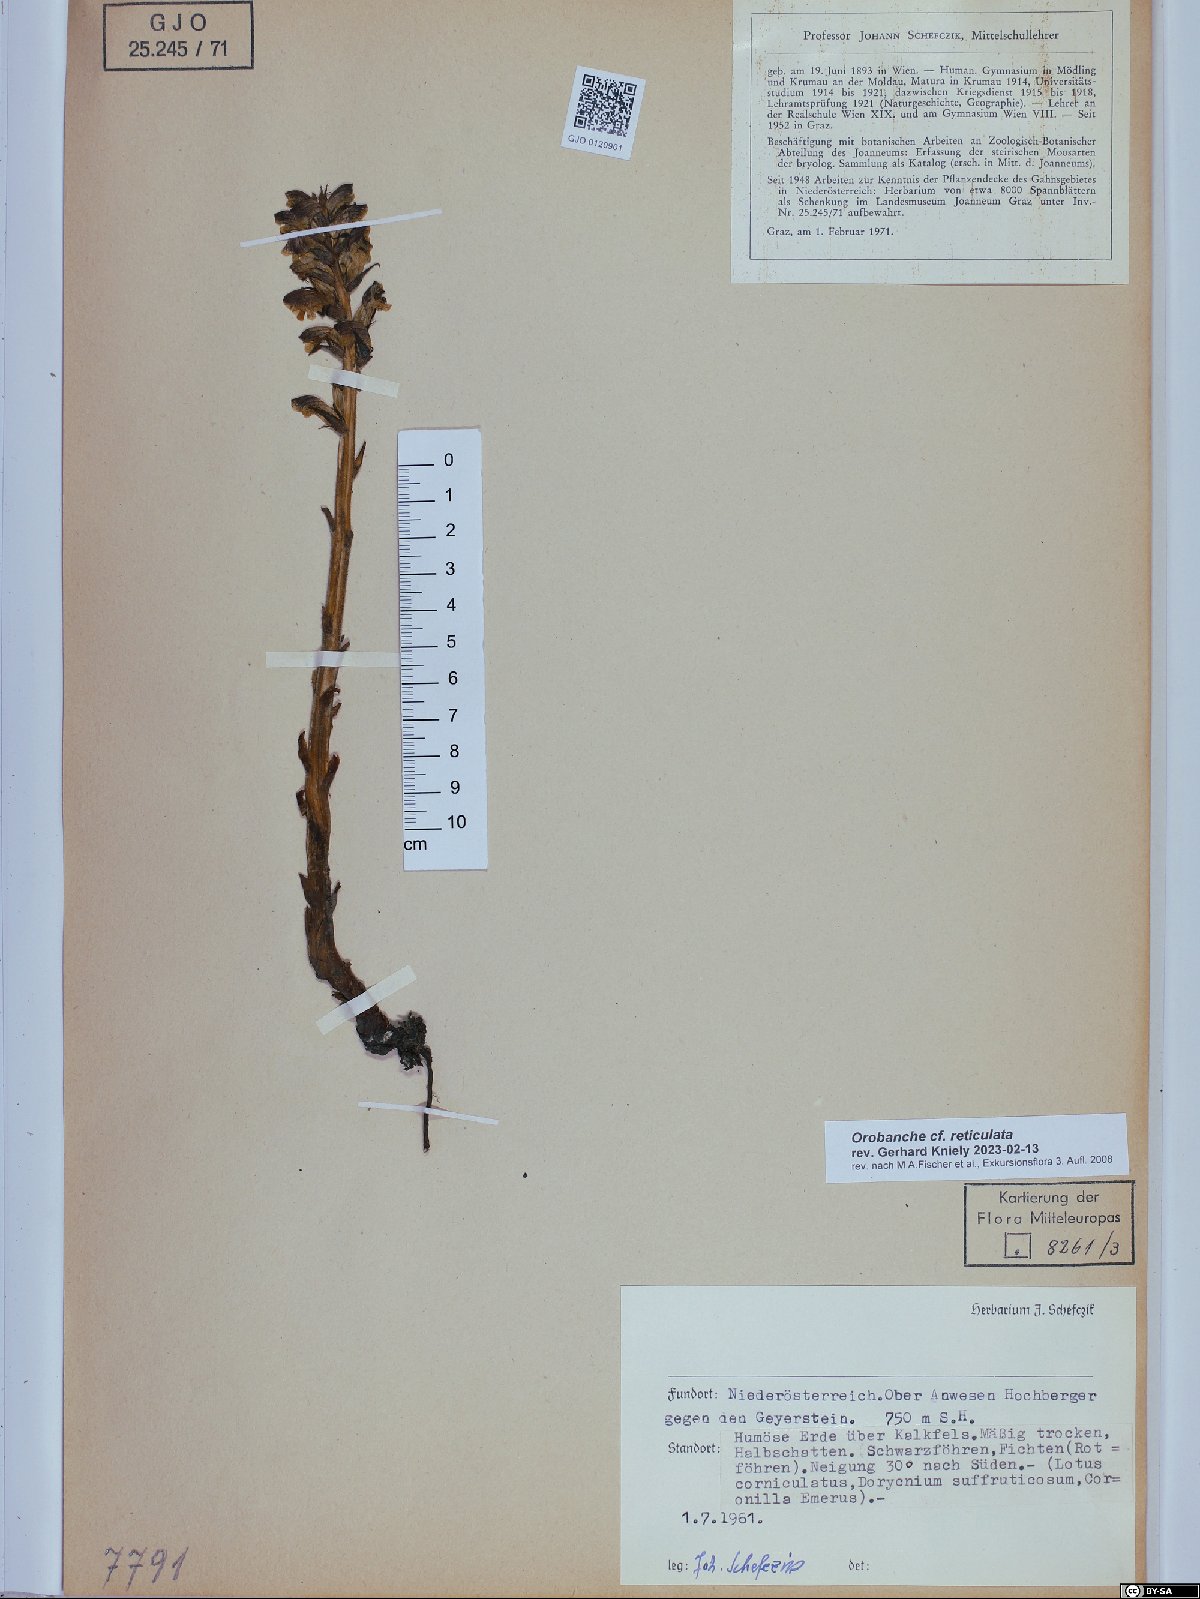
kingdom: Plantae
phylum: Tracheophyta
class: Magnoliopsida
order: Lamiales
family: Orobanchaceae
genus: Orobanche
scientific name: Orobanche reticulata
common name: Thistle broomrape
